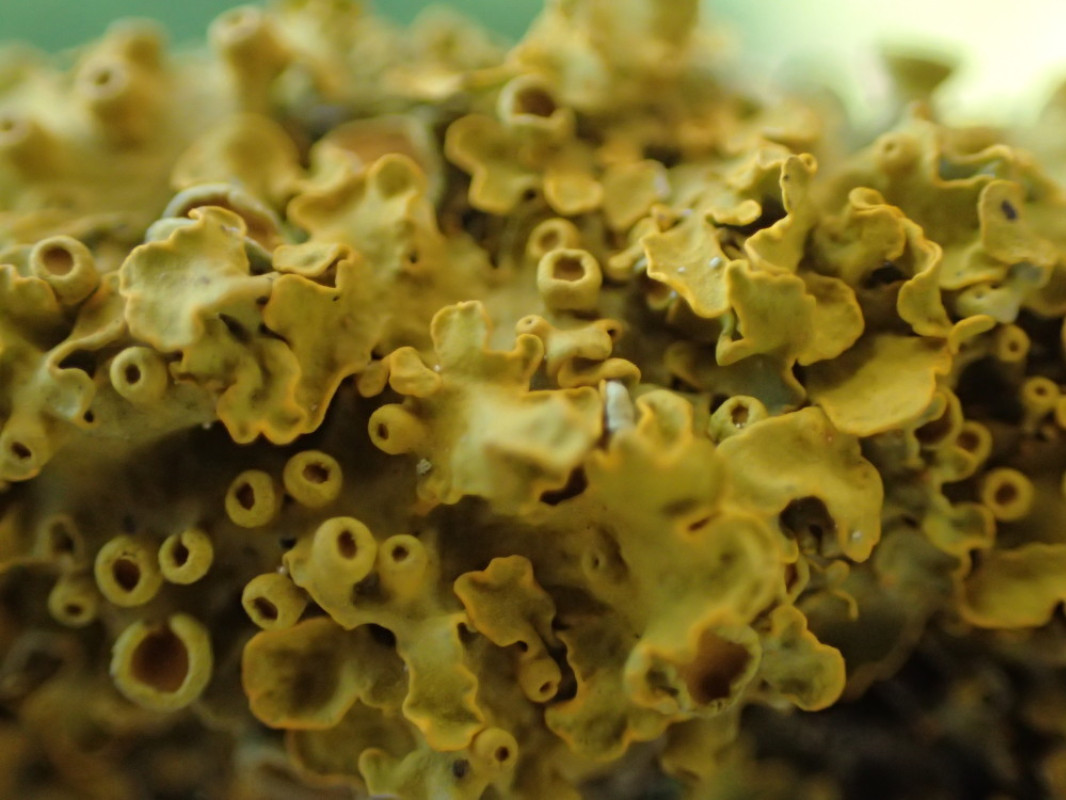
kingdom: Fungi
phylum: Ascomycota
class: Lecanoromycetes
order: Teloschistales
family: Teloschistaceae
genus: Xanthoria
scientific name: Xanthoria parietina
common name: almindelig væggelav
